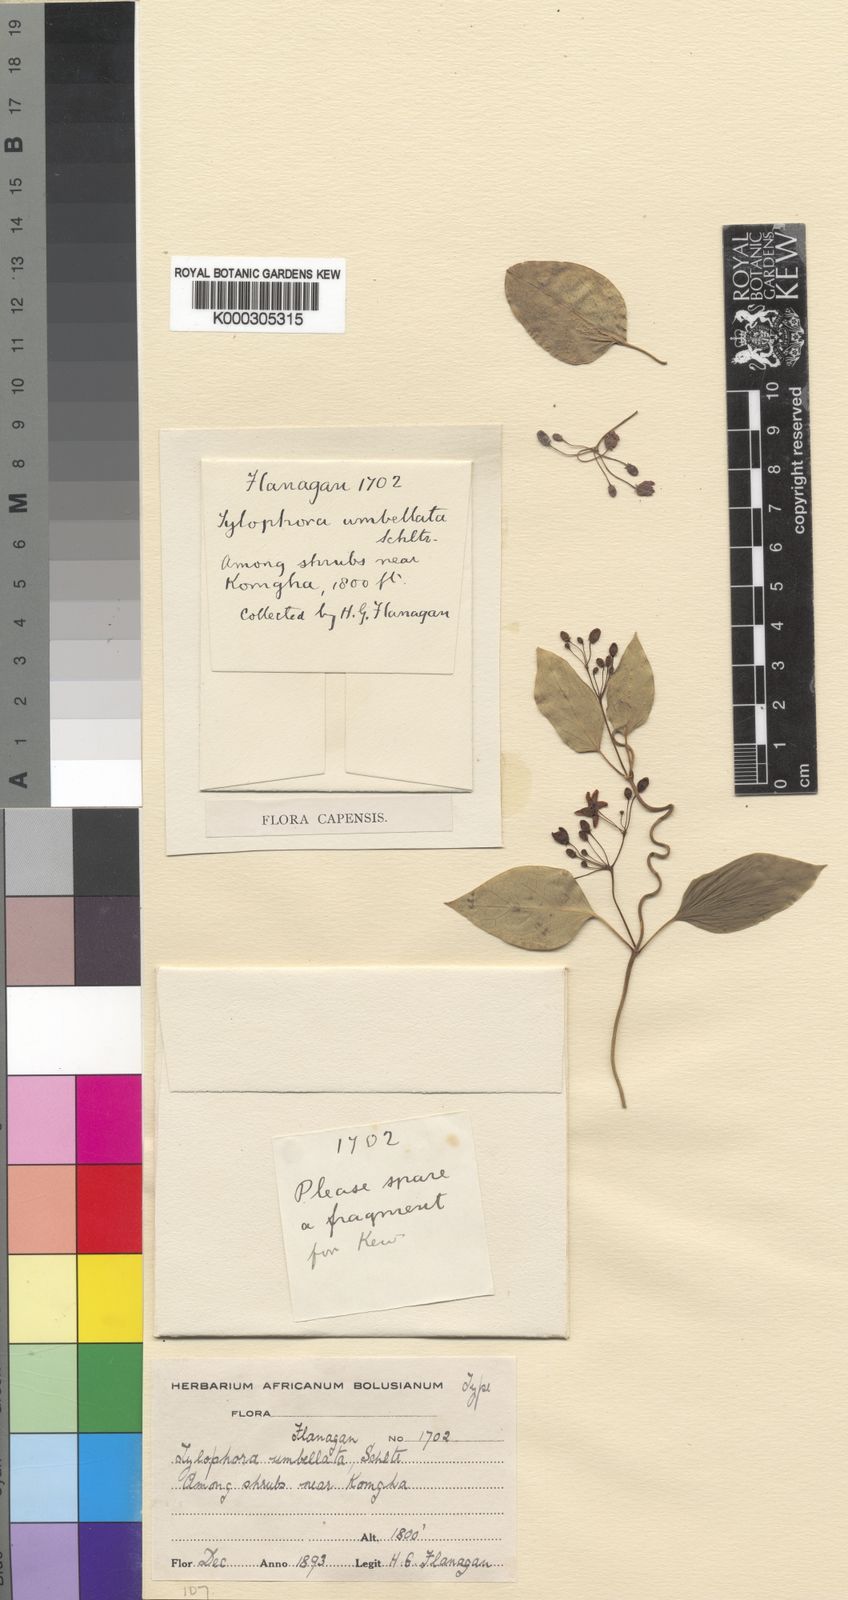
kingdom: Plantae
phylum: Tracheophyta
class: Magnoliopsida
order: Gentianales
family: Apocynaceae
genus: Vincetoxicum
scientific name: Vincetoxicum umbelliferum
